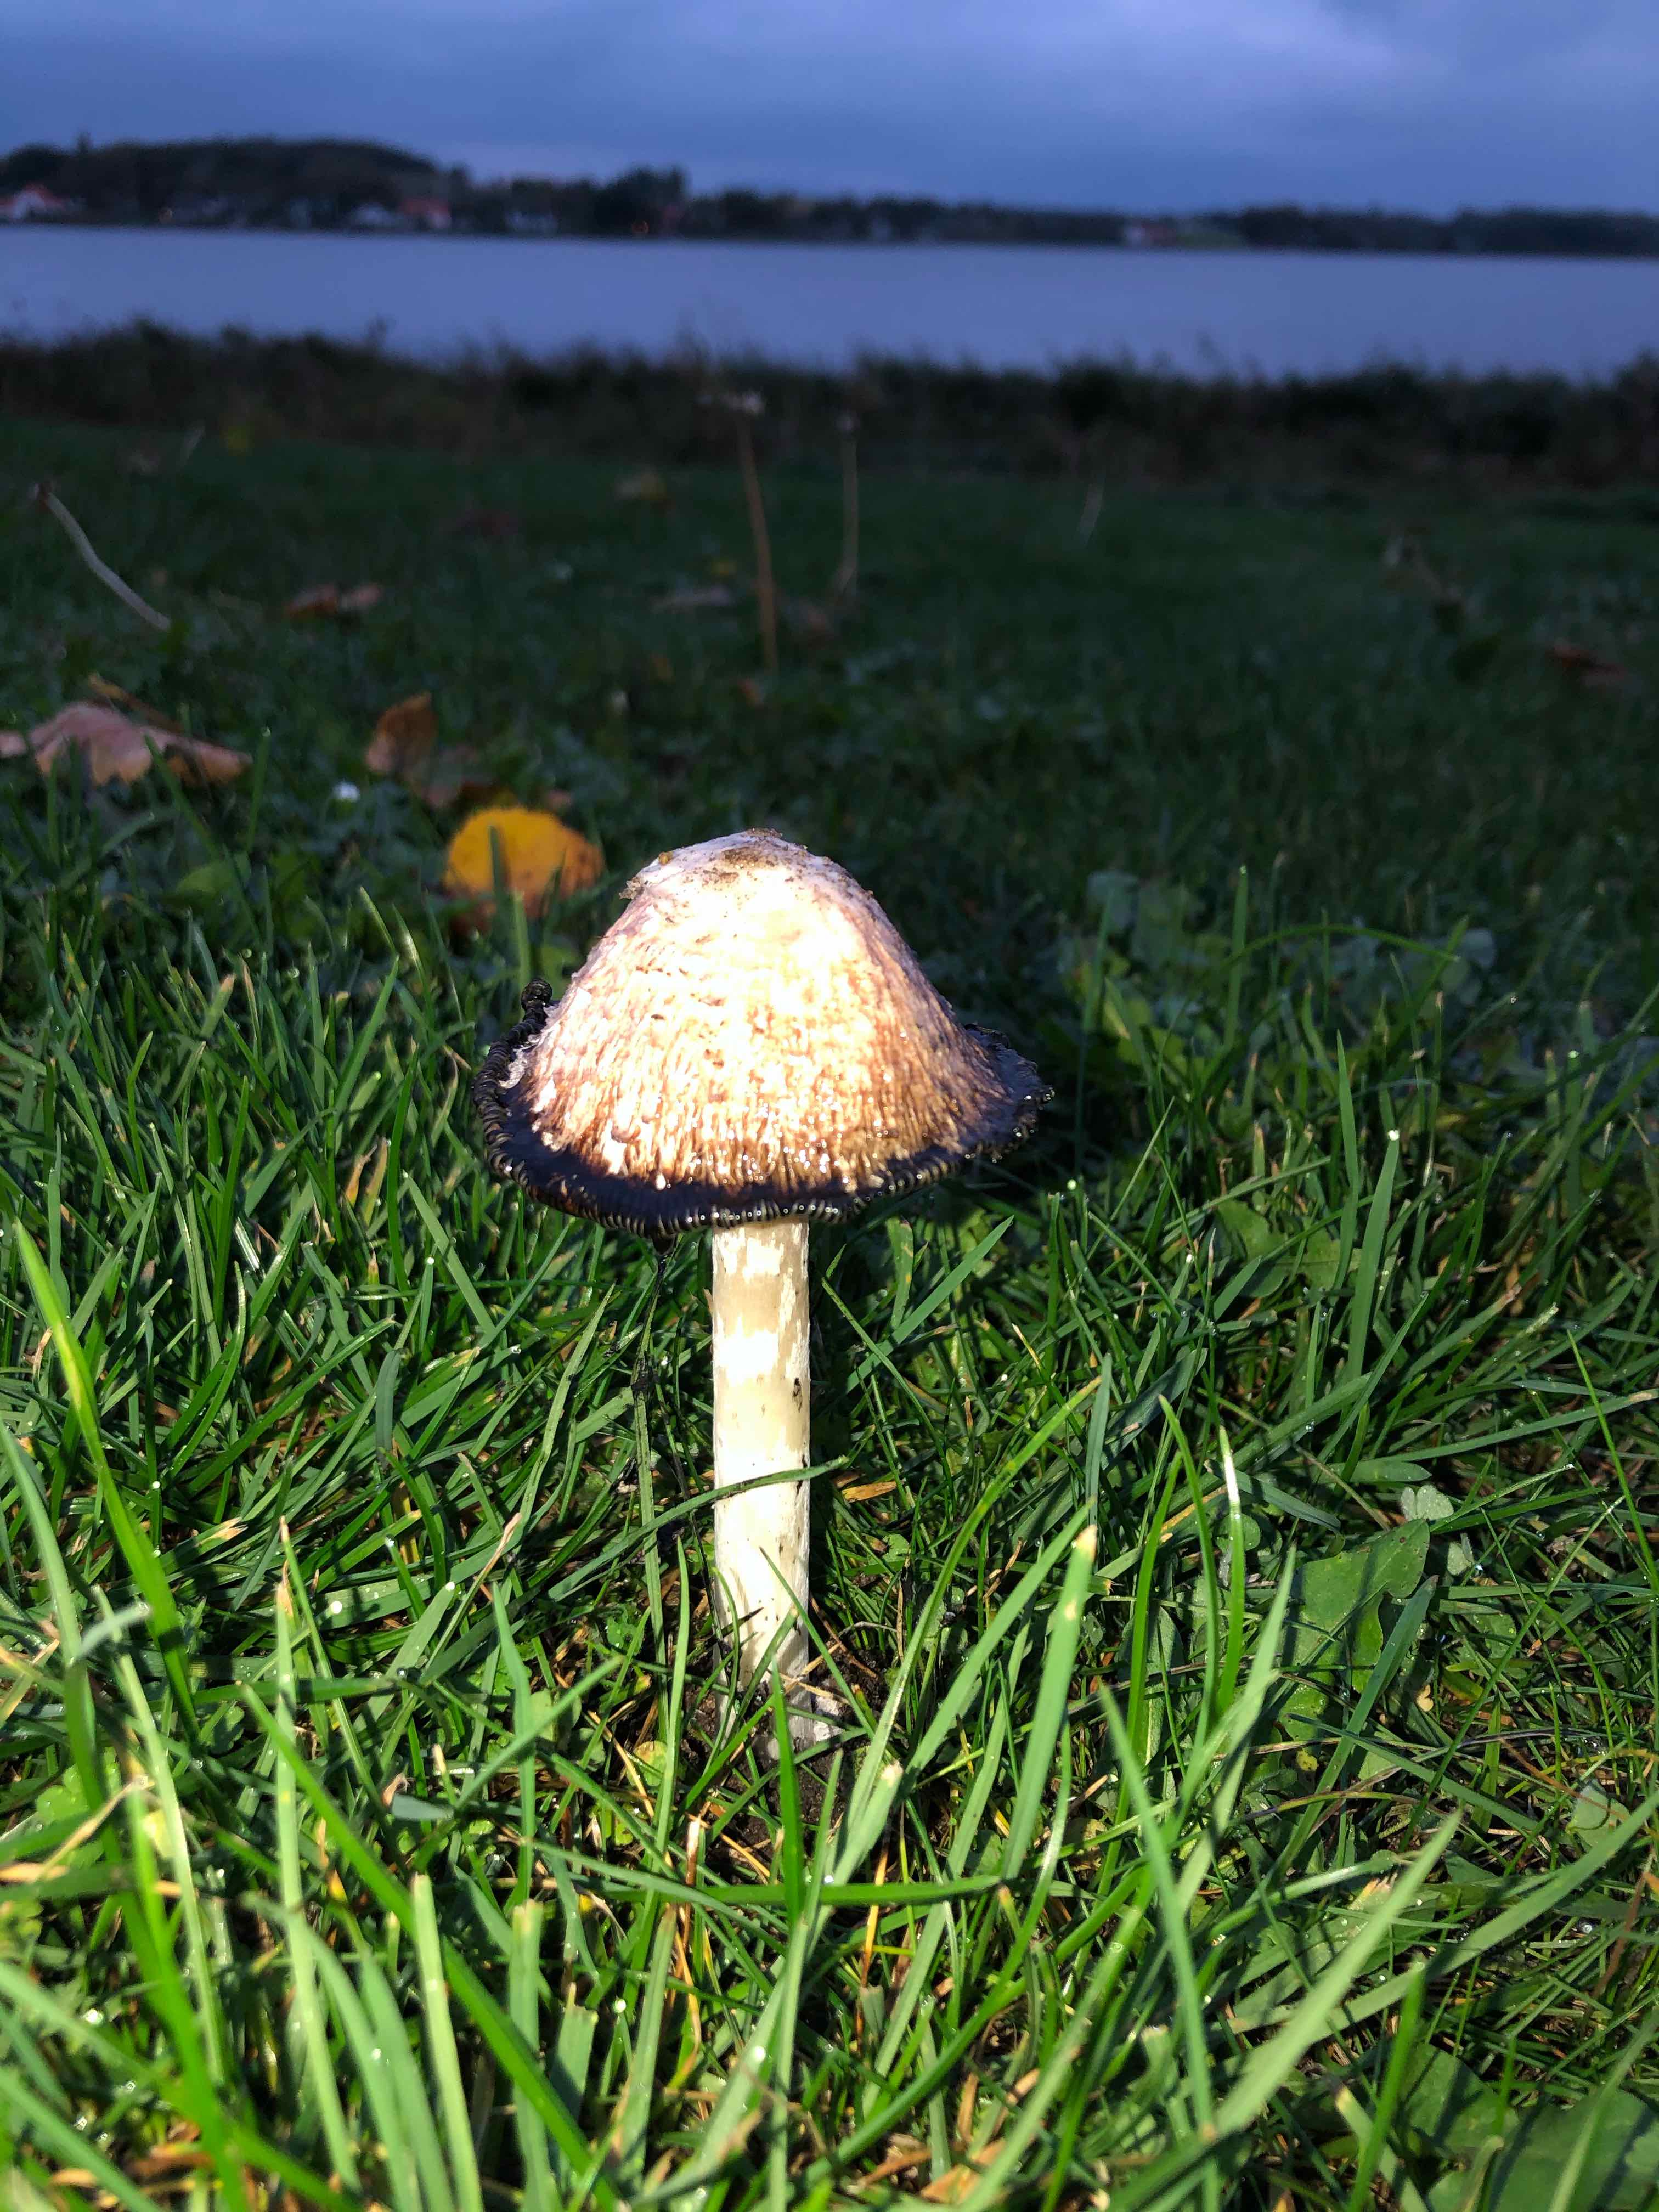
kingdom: Fungi
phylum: Basidiomycota
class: Agaricomycetes
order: Agaricales
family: Agaricaceae
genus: Coprinus
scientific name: Coprinus comatus
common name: stor parykhat
